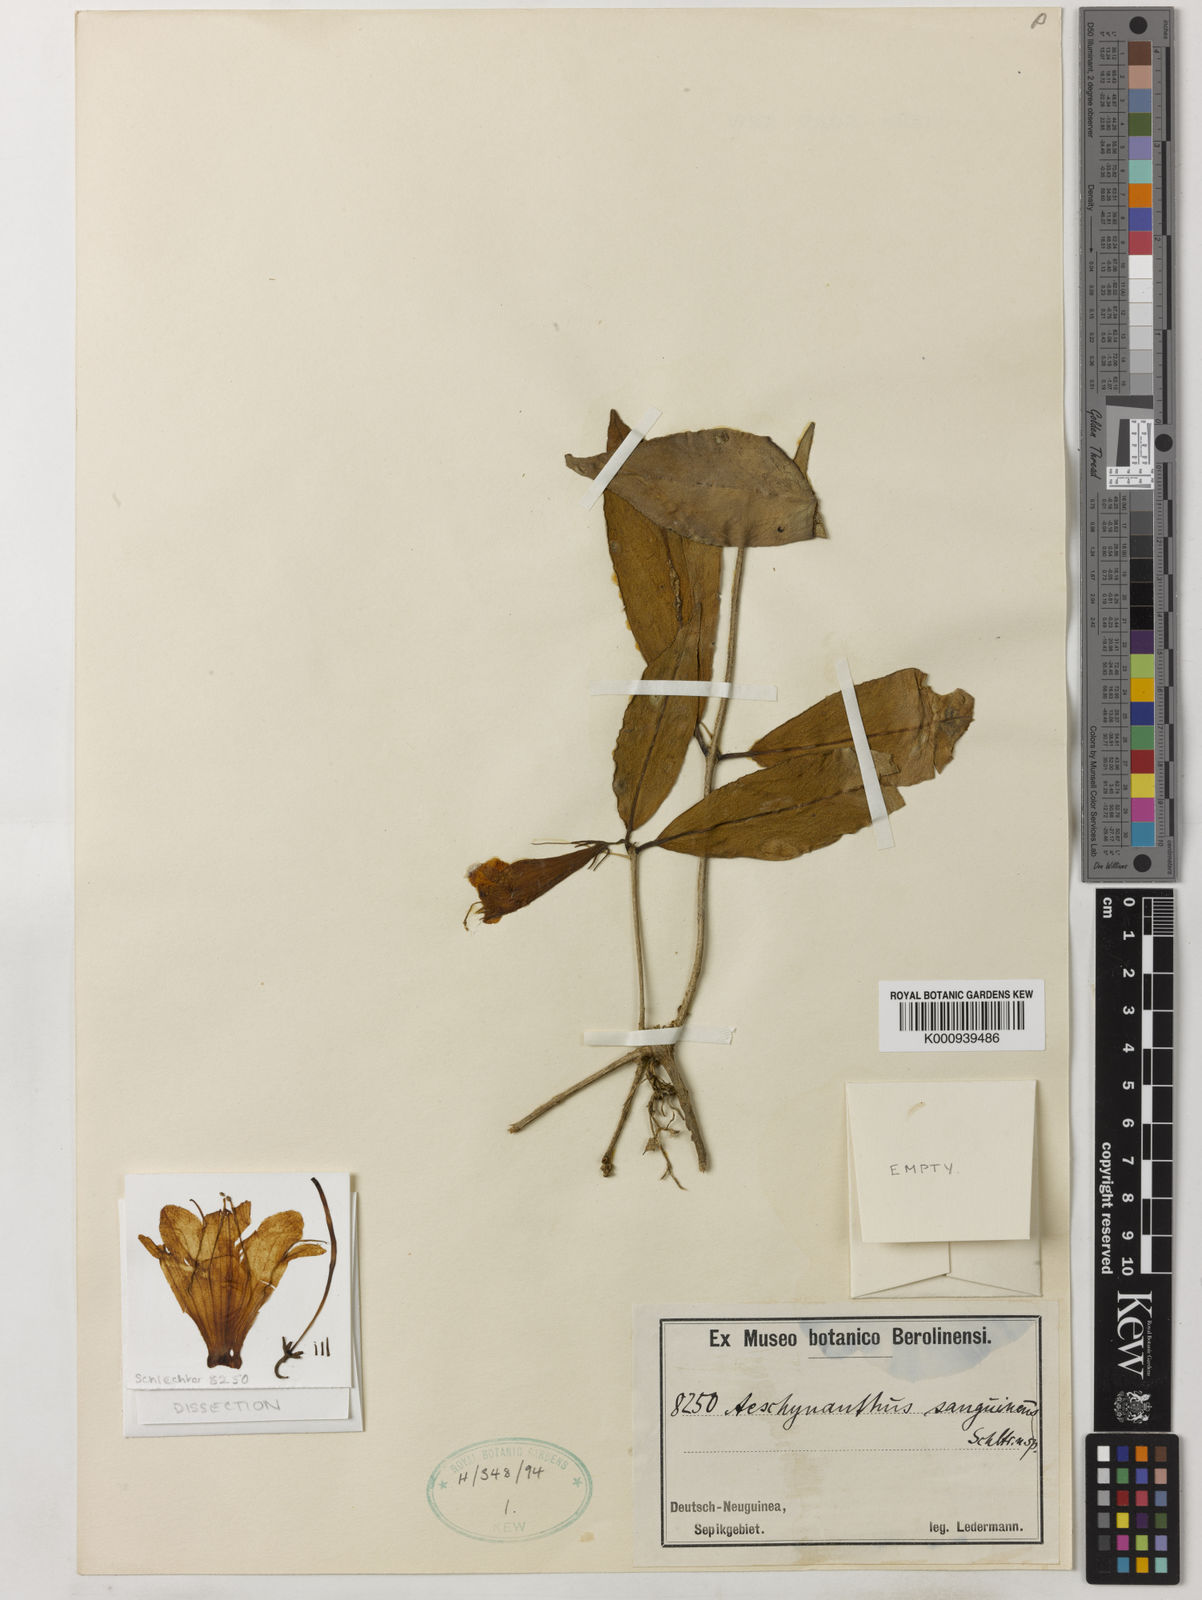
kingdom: Plantae
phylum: Tracheophyta
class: Magnoliopsida
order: Lamiales
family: Gesneriaceae
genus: Aeschynanthus
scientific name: Aeschynanthus sanguineus
